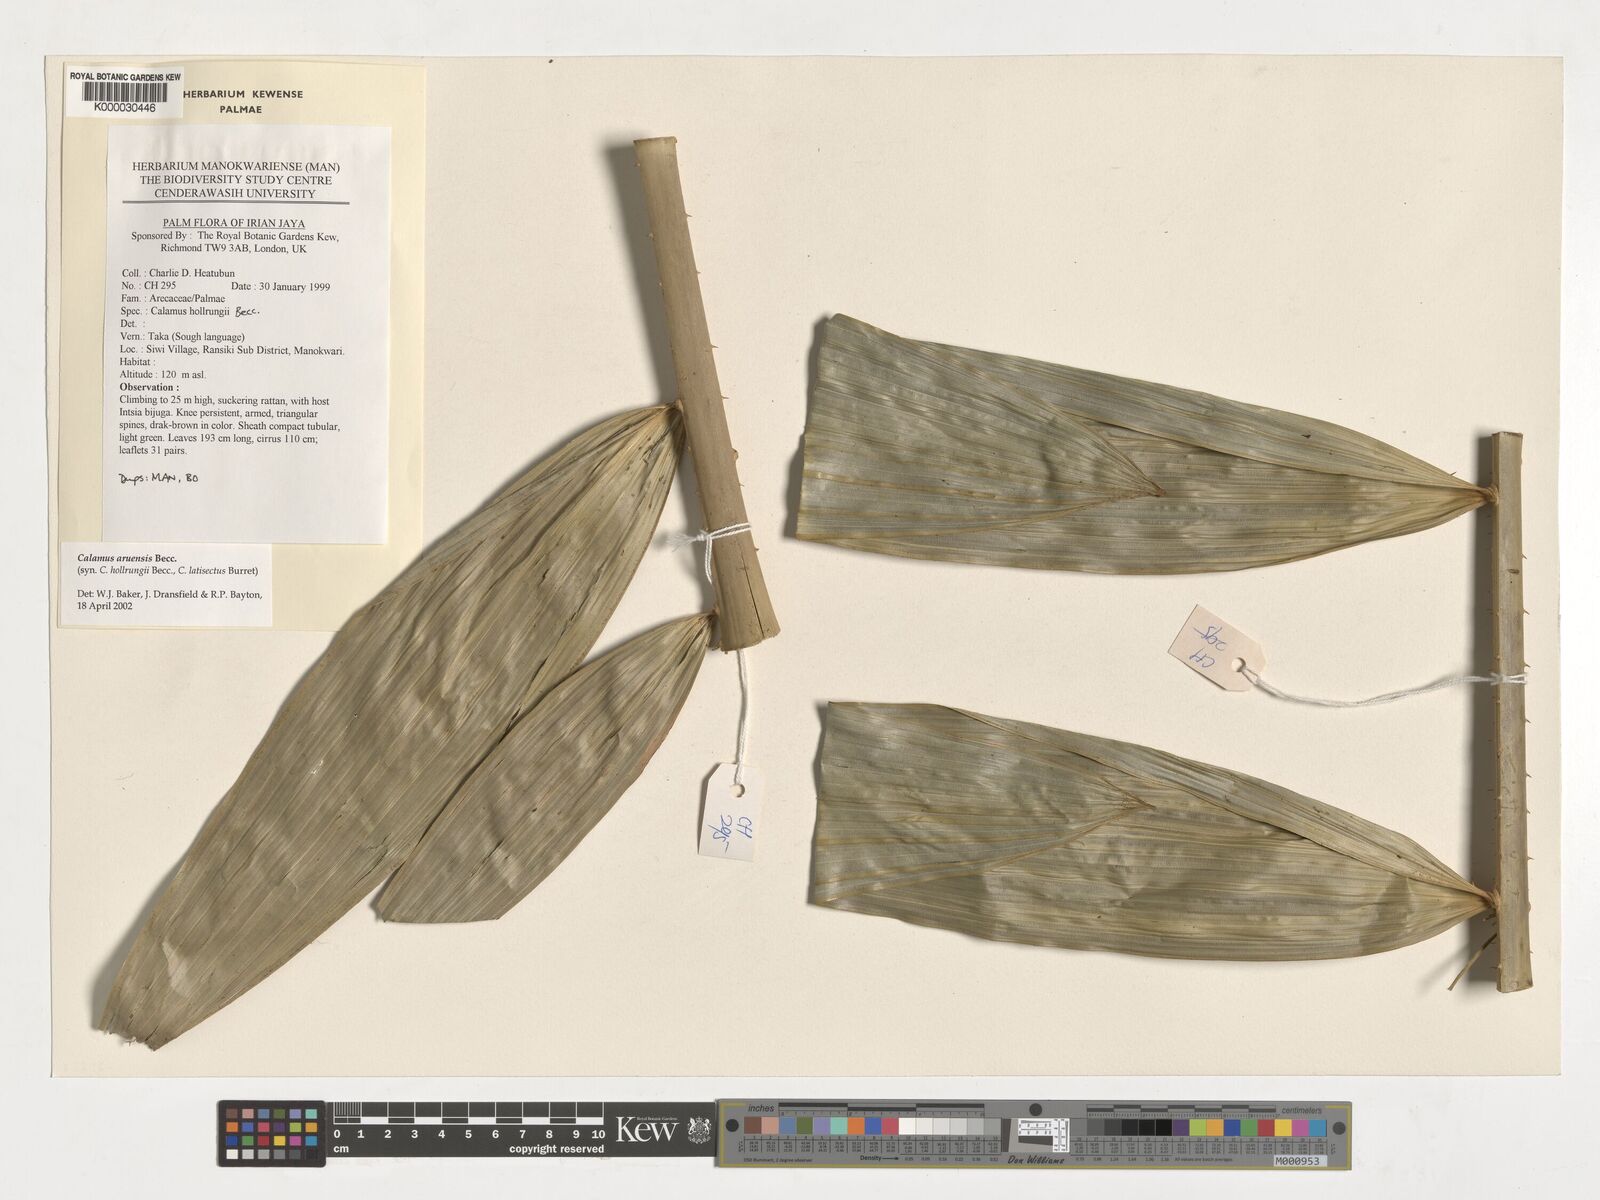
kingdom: Plantae
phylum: Tracheophyta
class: Liliopsida
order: Arecales
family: Arecaceae
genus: Calamus
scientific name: Calamus aruensis
